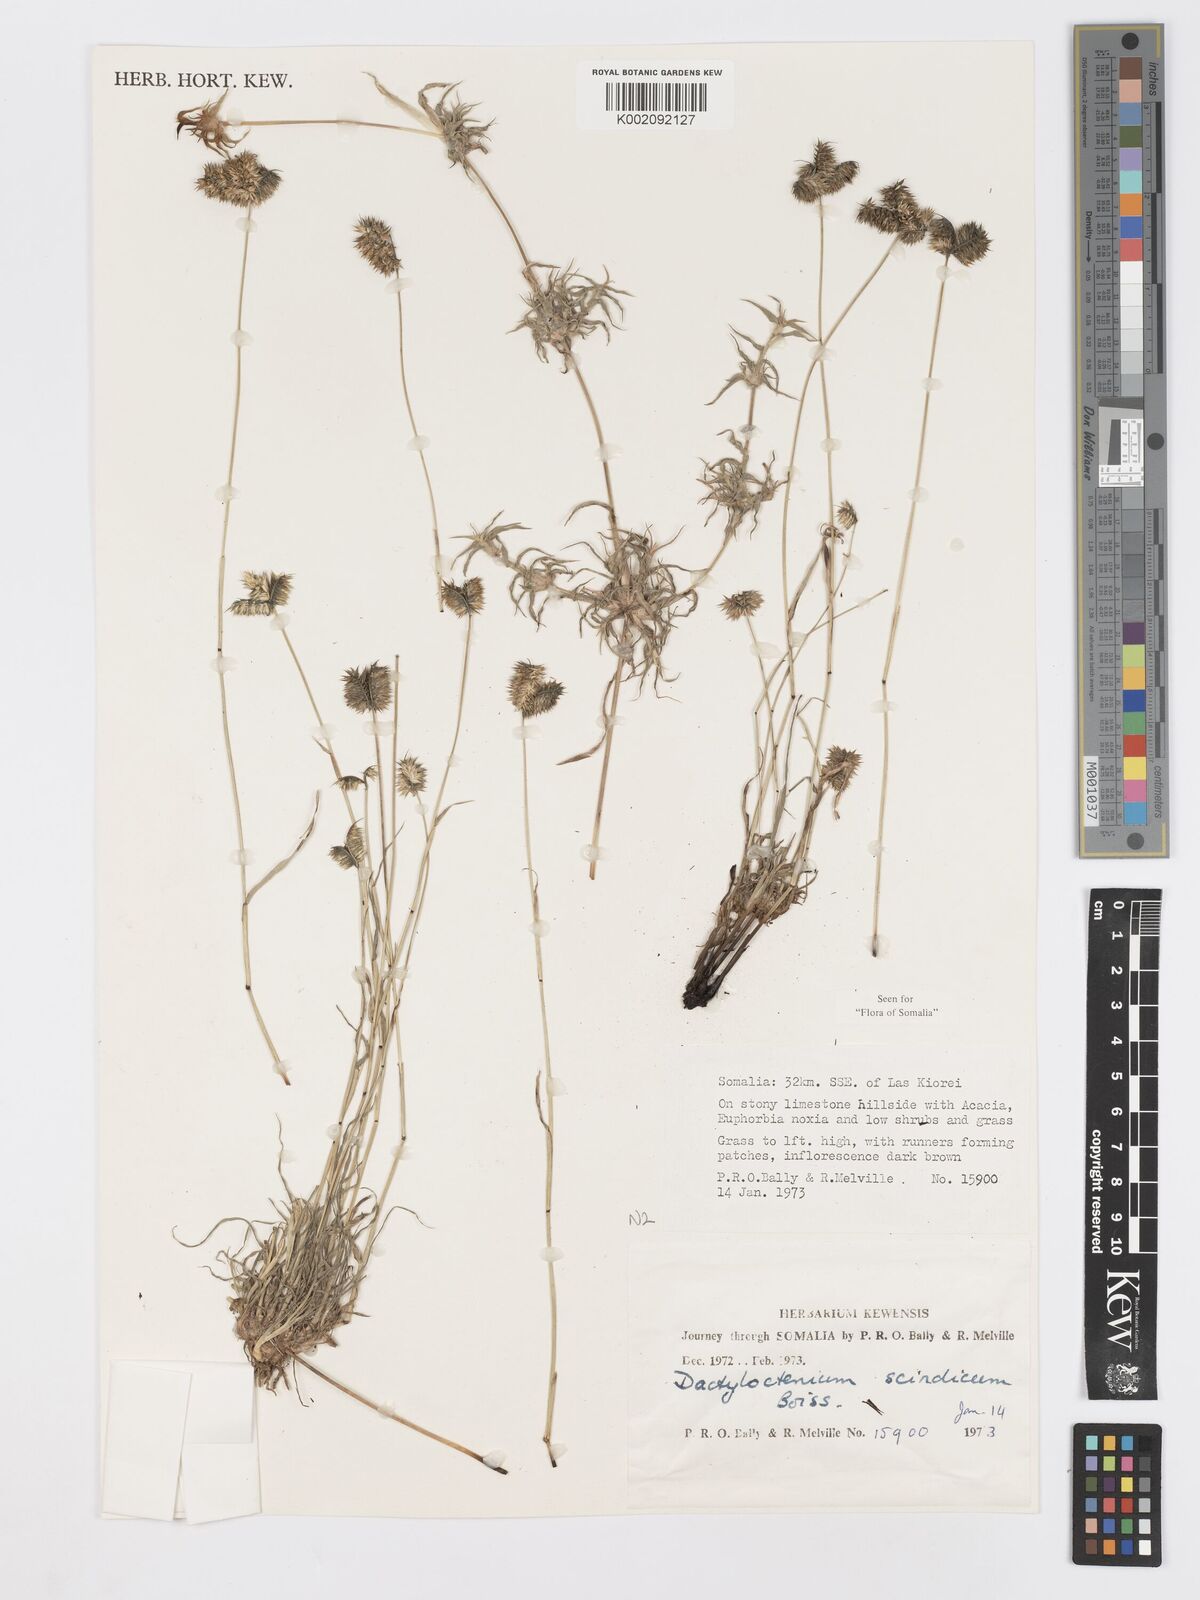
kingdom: Plantae
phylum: Tracheophyta
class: Liliopsida
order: Poales
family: Poaceae
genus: Dactyloctenium
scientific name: Dactyloctenium scindicum
